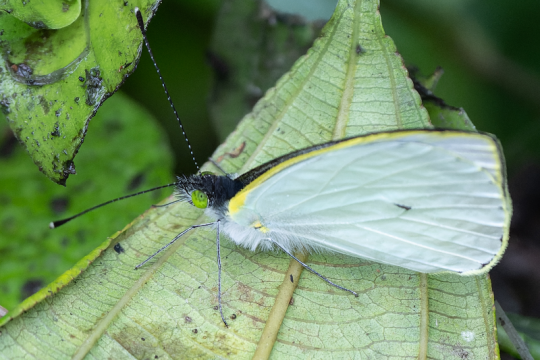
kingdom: Animalia
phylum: Arthropoda
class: Insecta
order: Lepidoptera
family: Pieridae
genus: Leptophobia
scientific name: Leptophobia aripa
